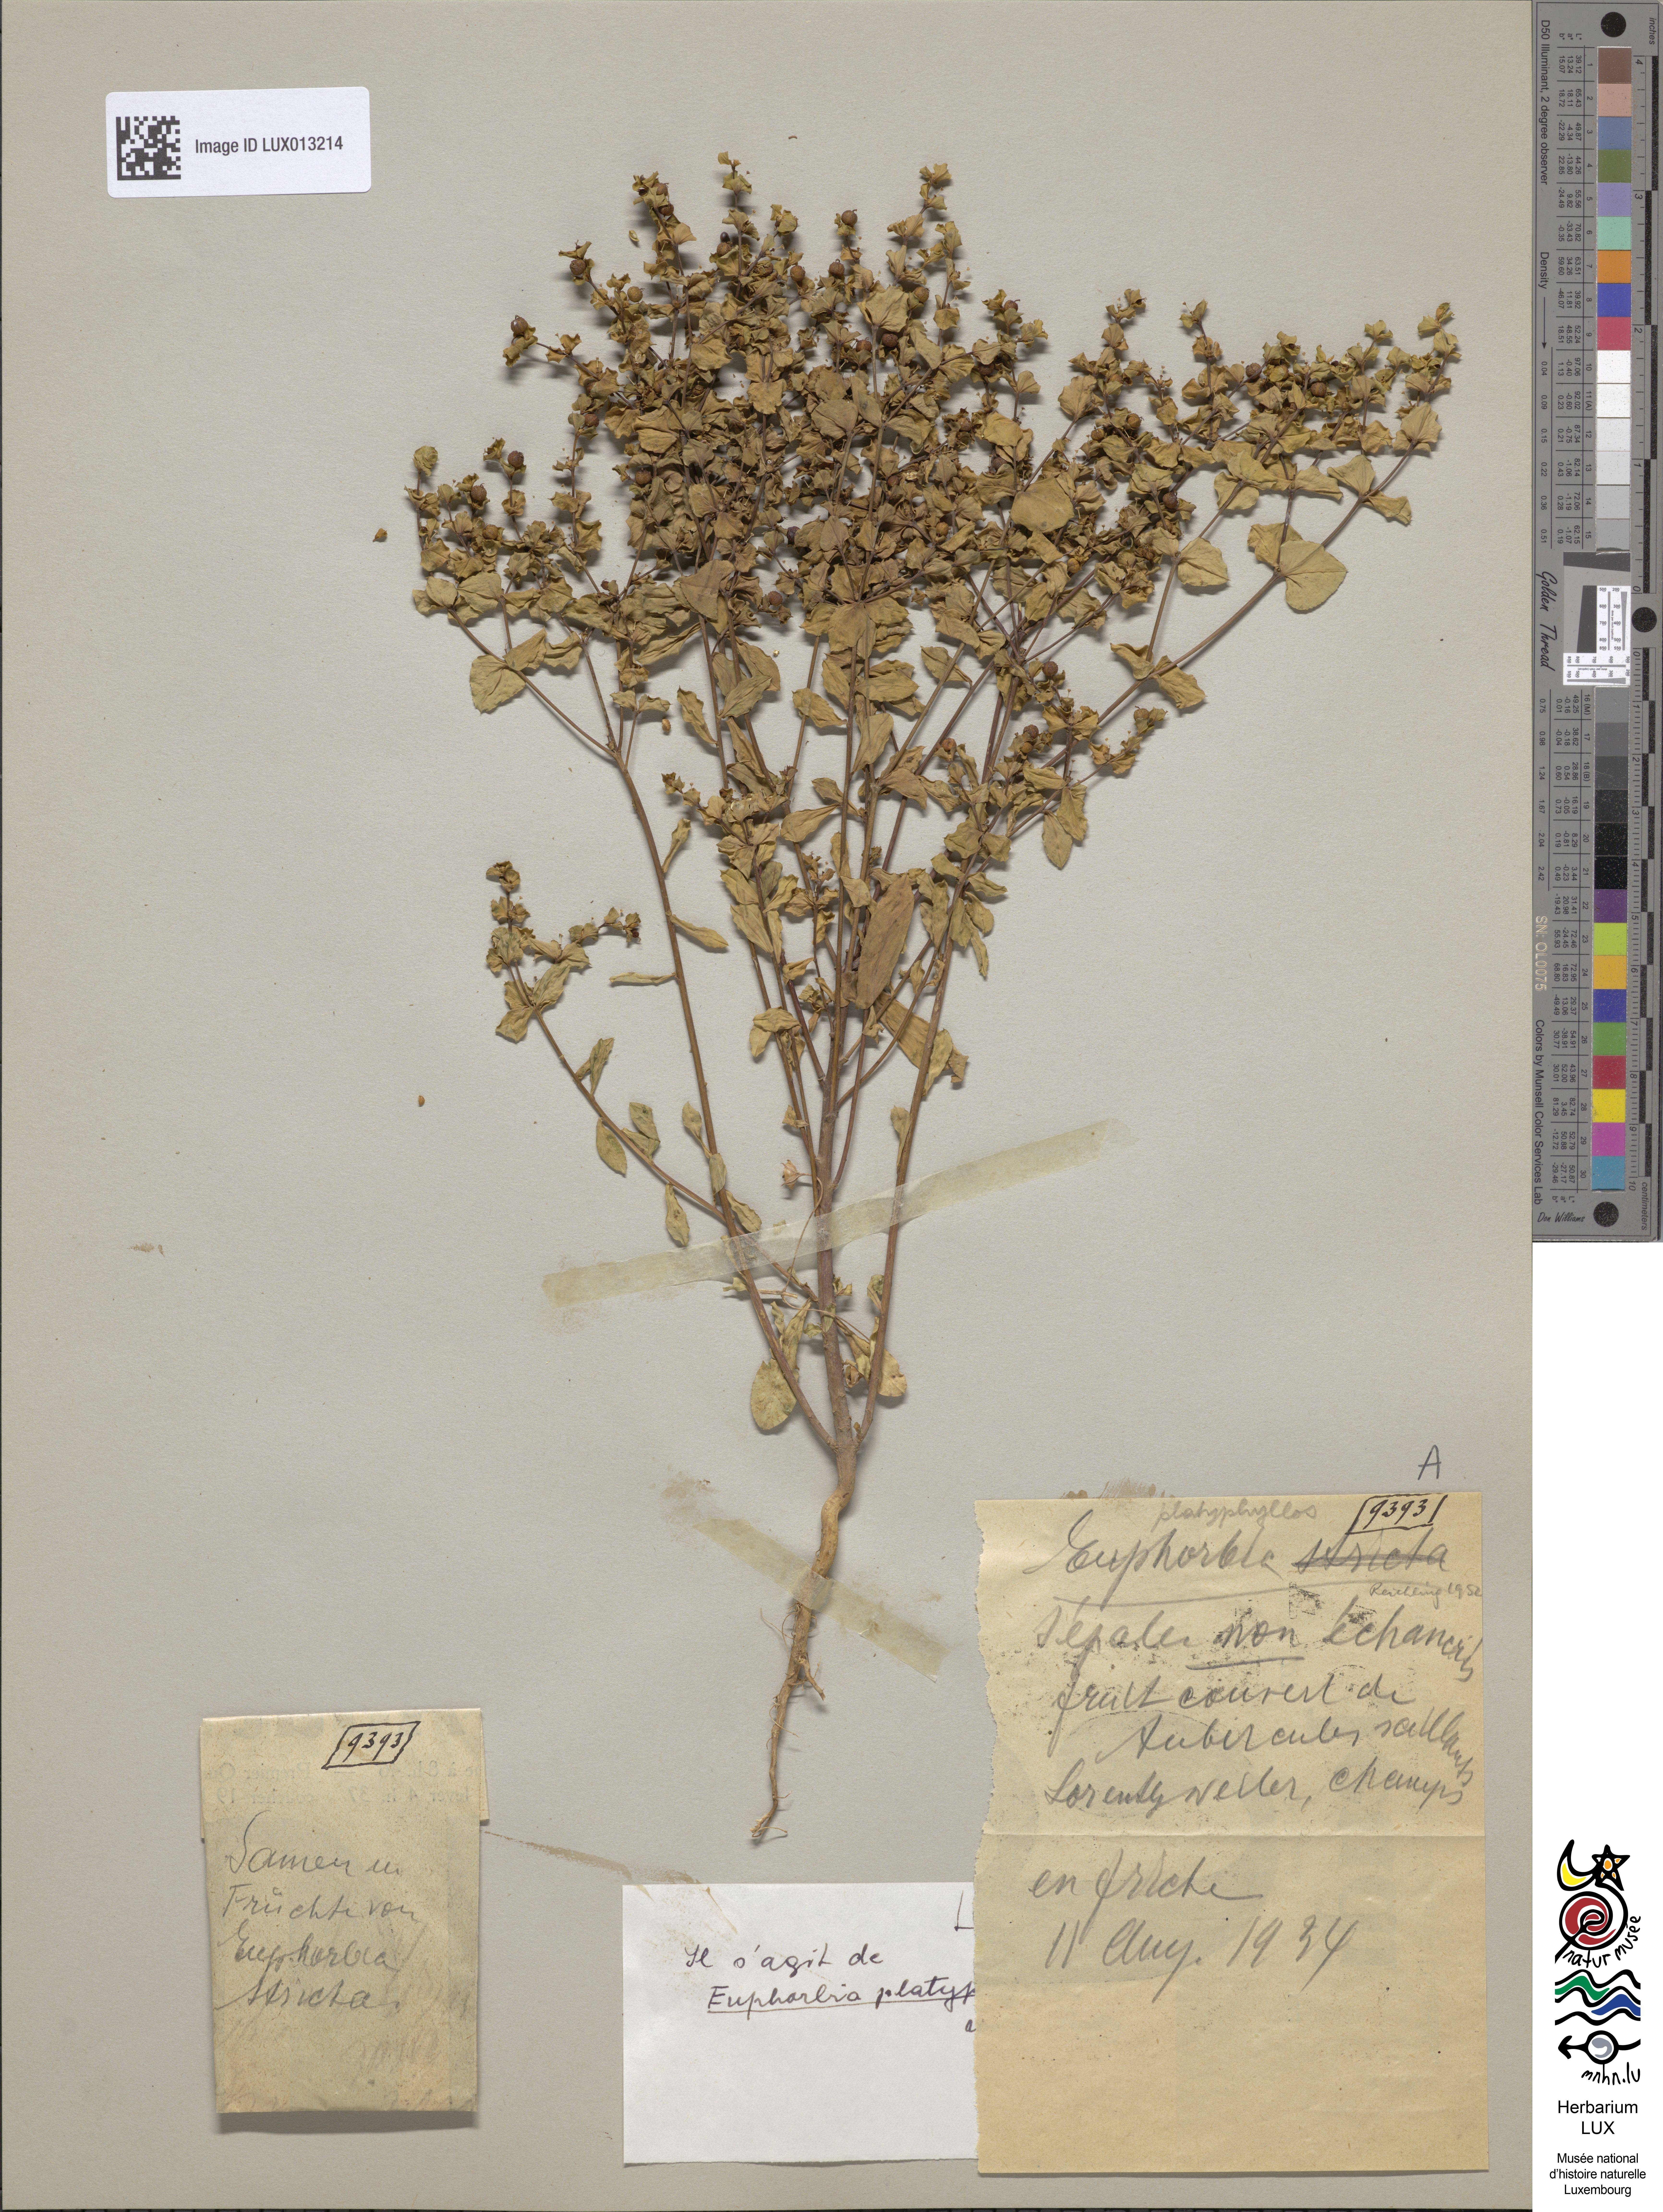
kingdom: Plantae
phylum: Tracheophyta
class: Magnoliopsida
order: Malpighiales
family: Euphorbiaceae
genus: Euphorbia
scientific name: Euphorbia platyphyllos
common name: Broad-leaved spurge
